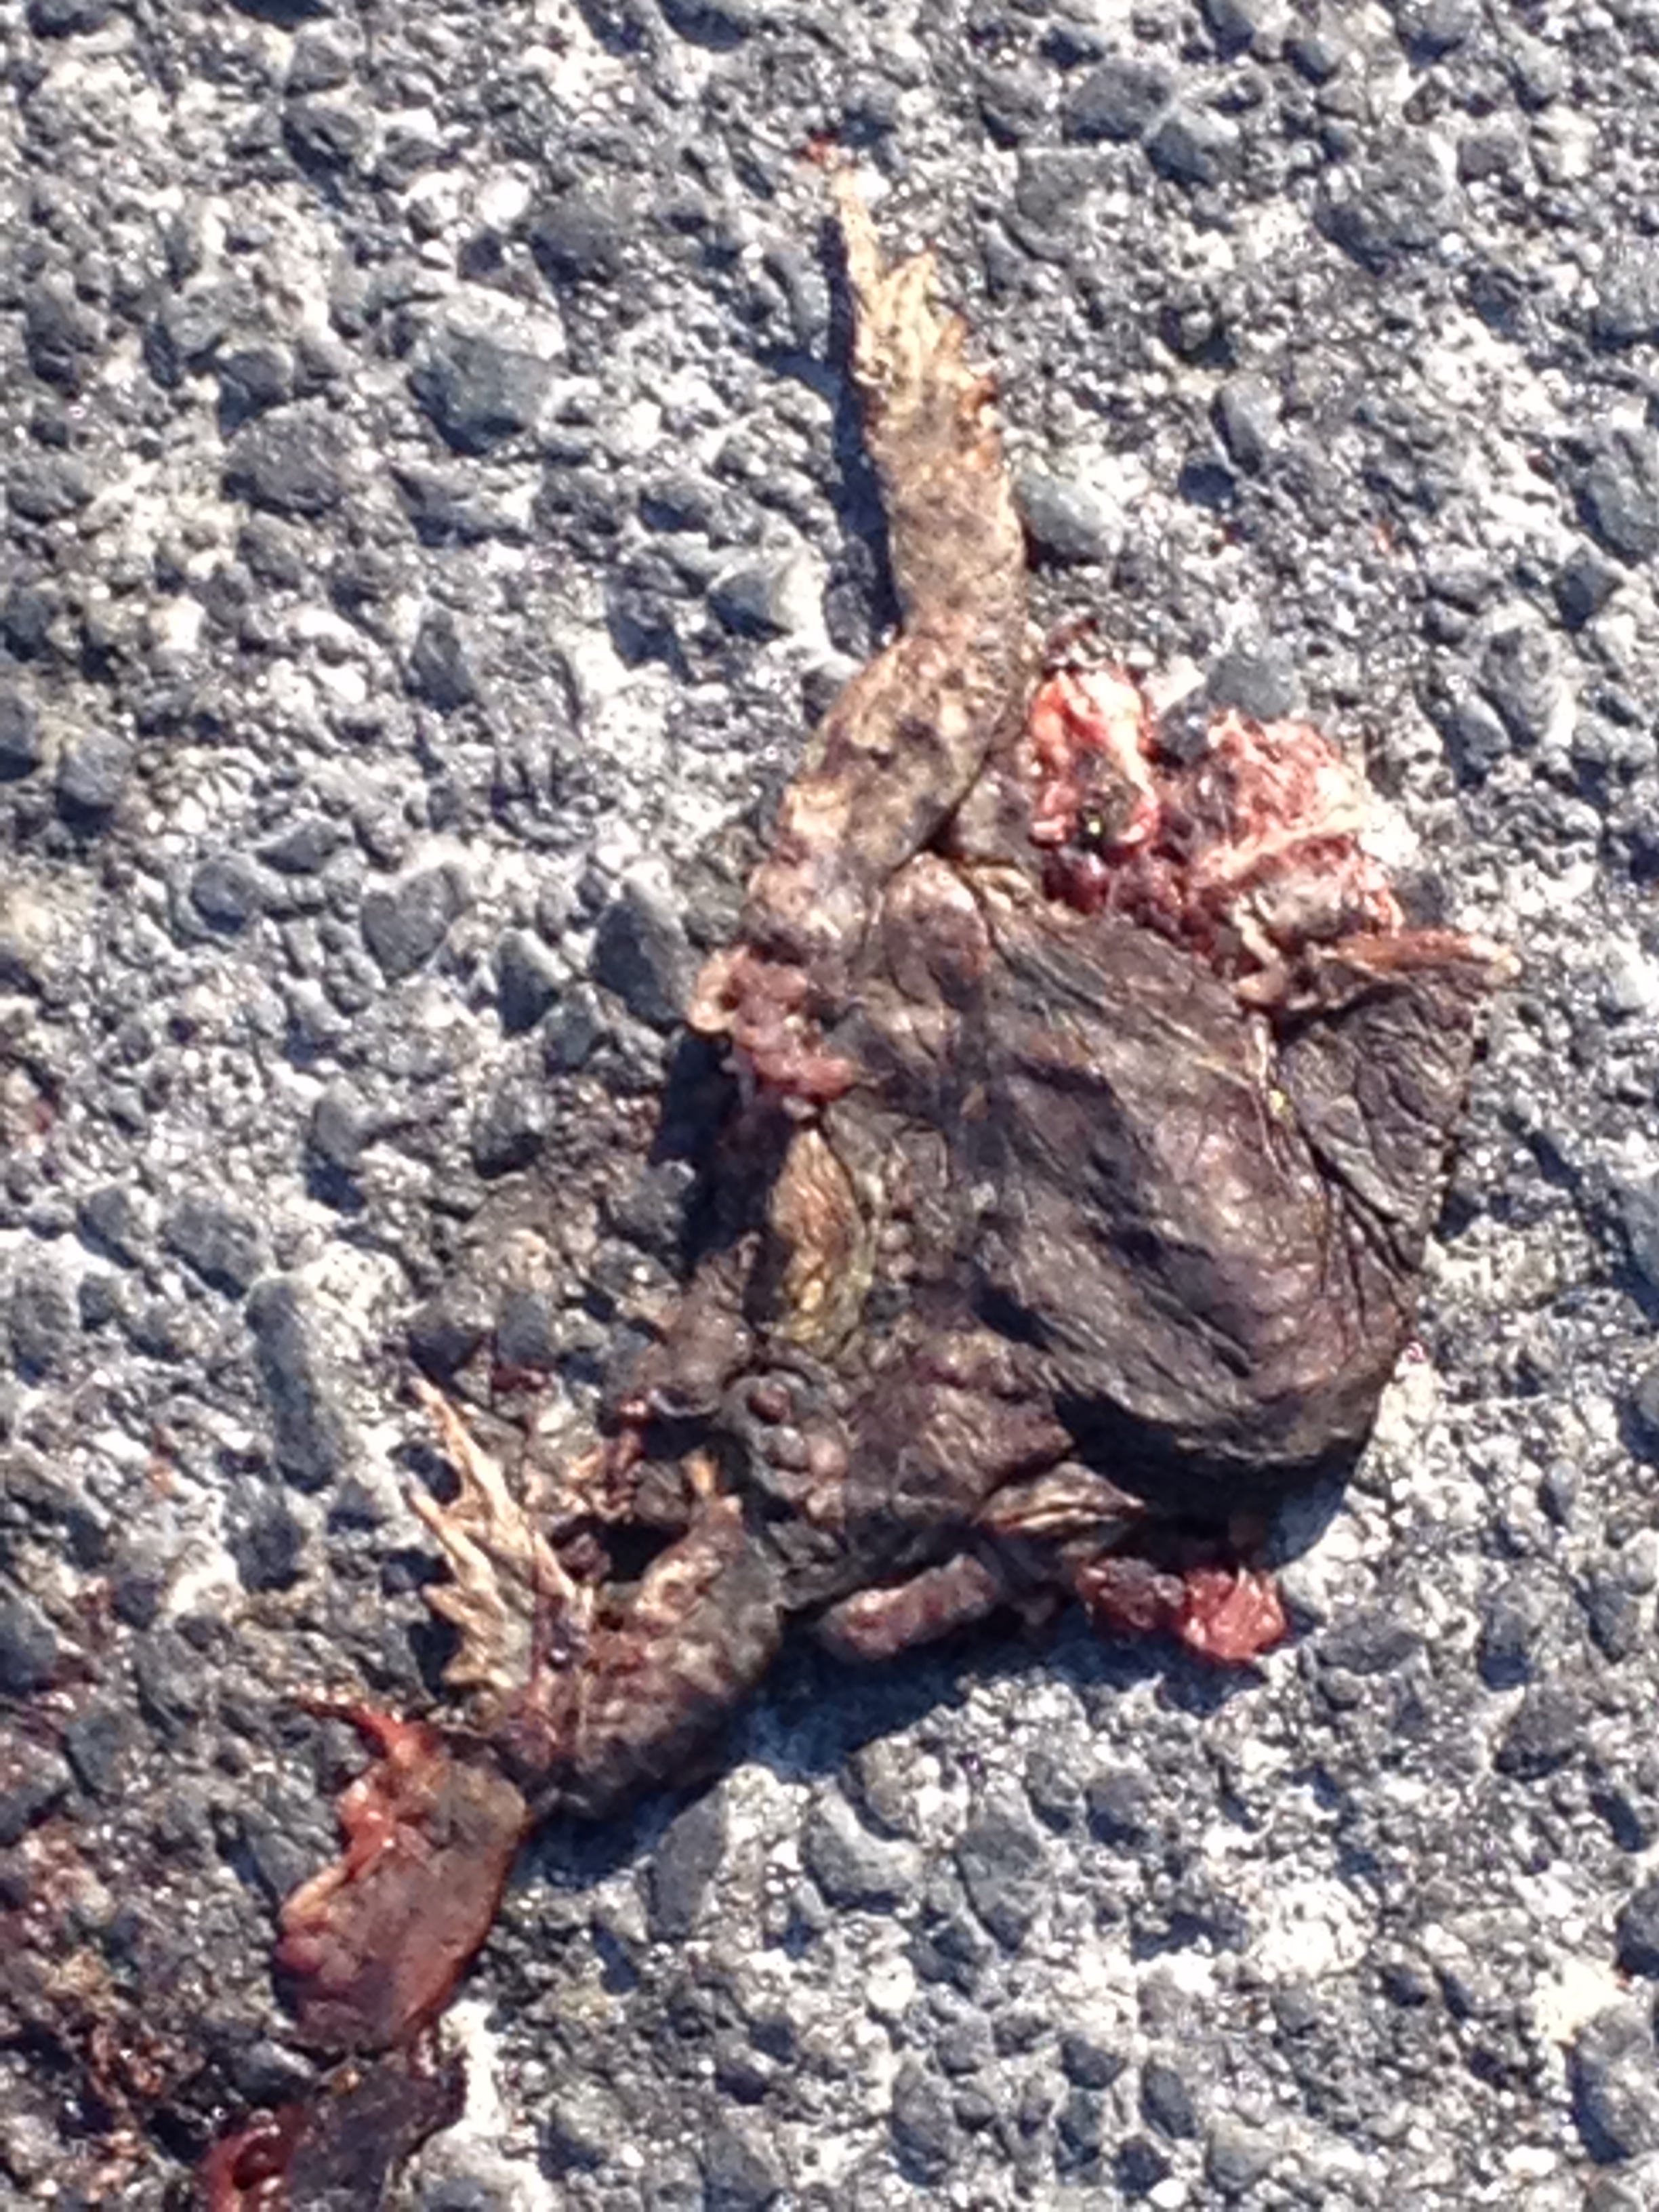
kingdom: Animalia
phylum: Chordata
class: Amphibia
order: Anura
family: Bufonidae
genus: Bufo
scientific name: Bufo bufo
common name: Common toad
